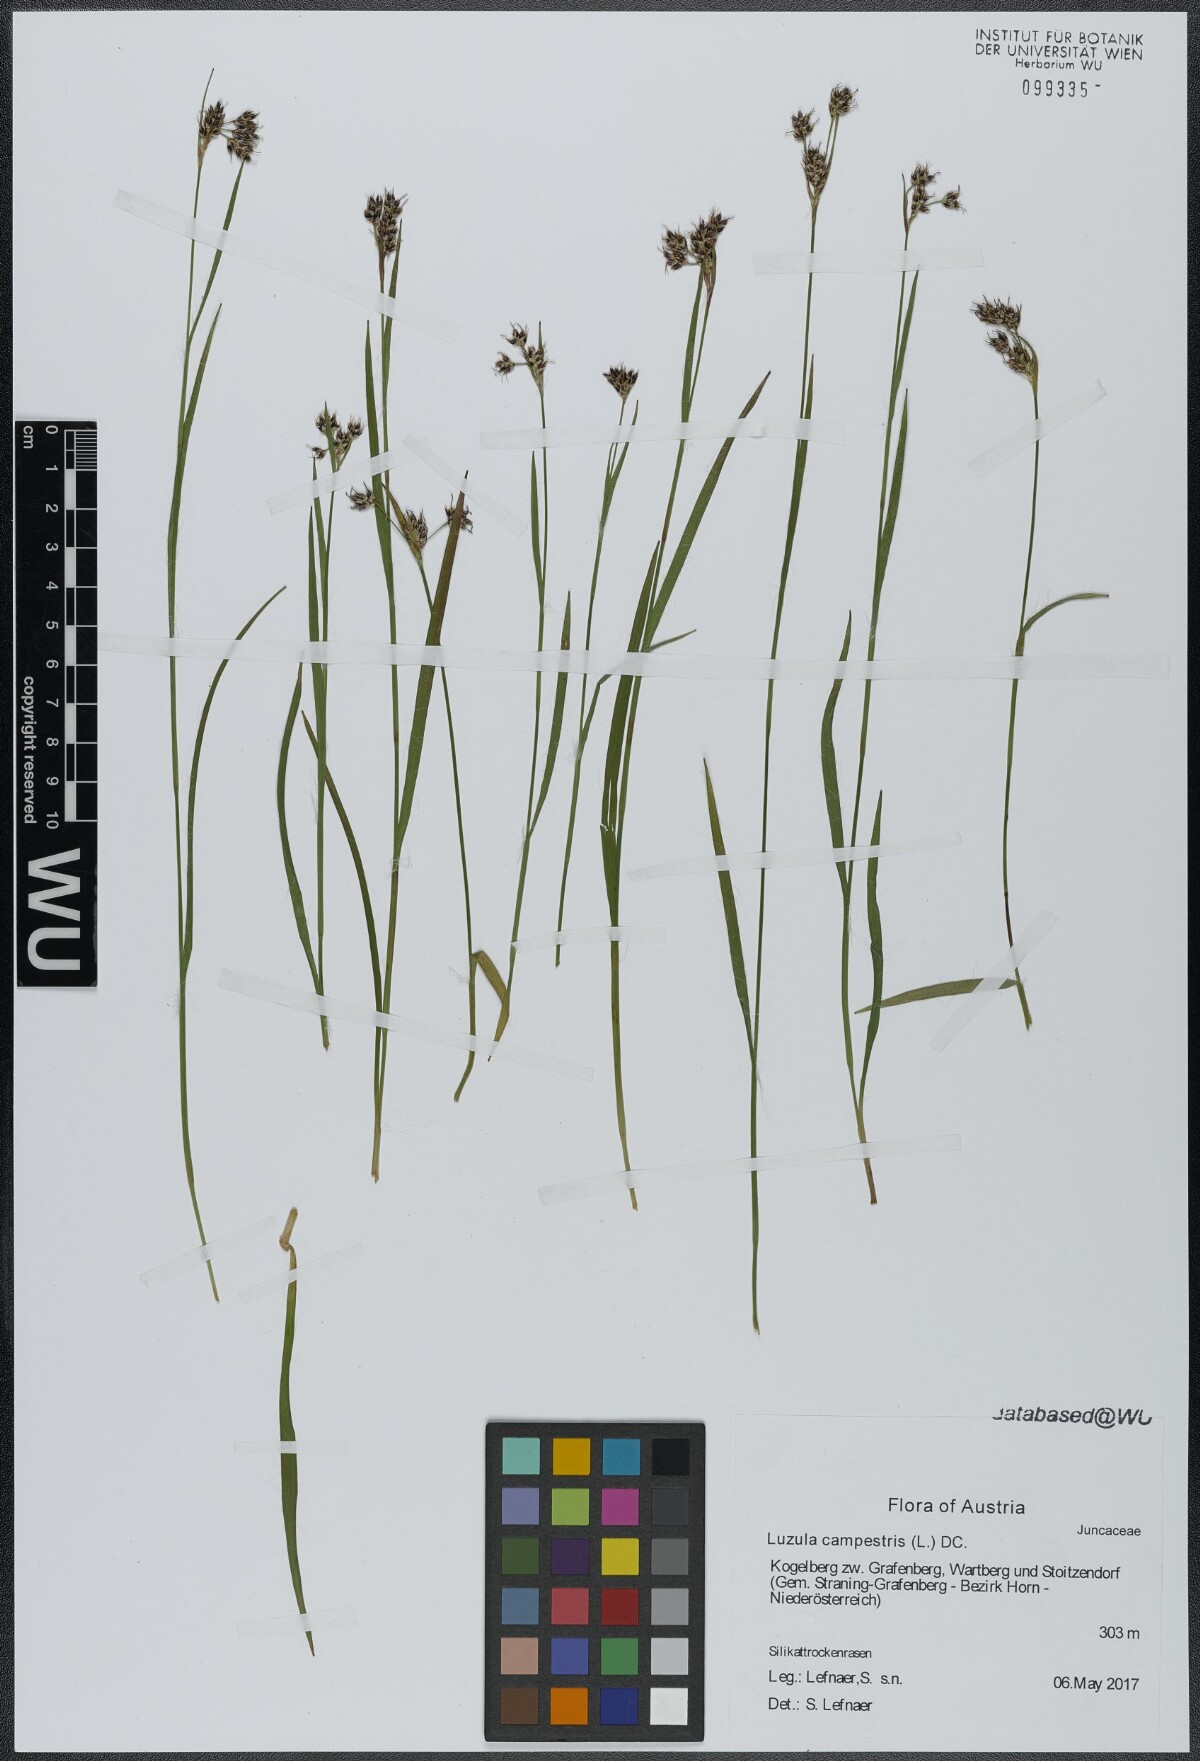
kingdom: Plantae
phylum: Tracheophyta
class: Liliopsida
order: Poales
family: Juncaceae
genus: Luzula
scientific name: Luzula campestris
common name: Field wood-rush
